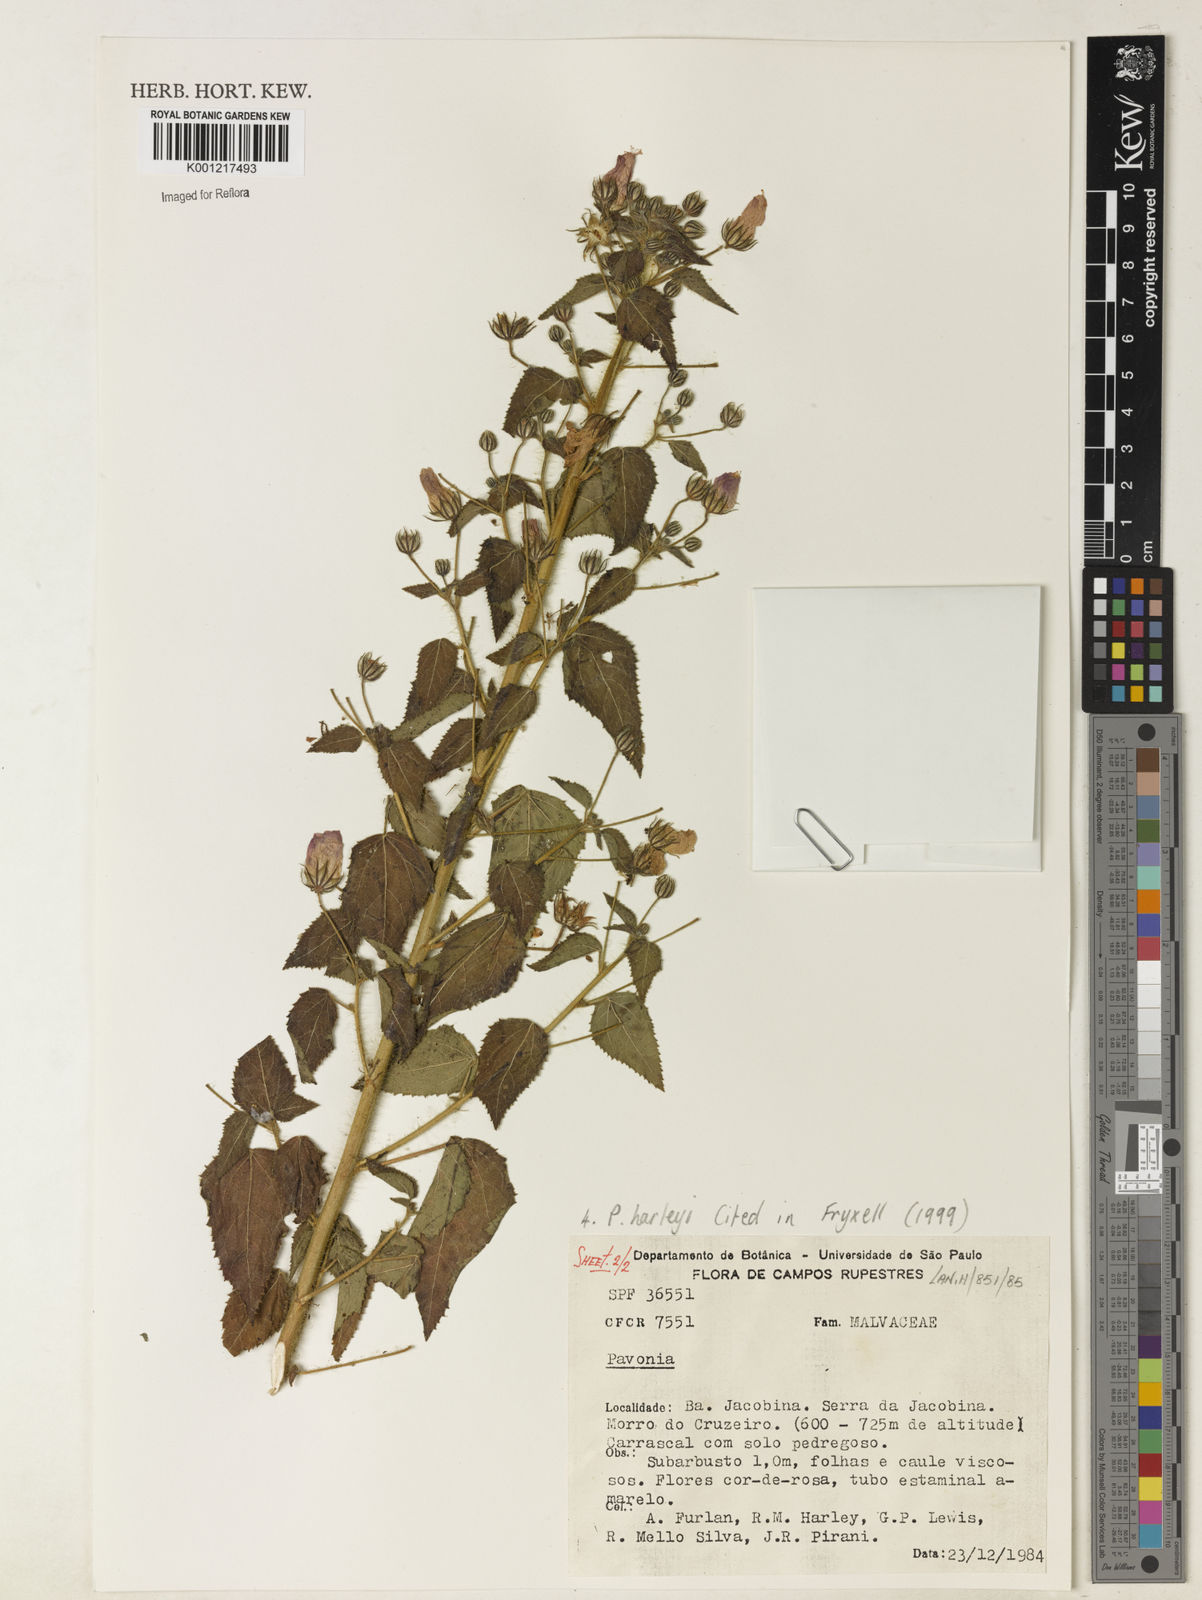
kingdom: Plantae
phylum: Tracheophyta
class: Magnoliopsida
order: Malvales
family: Malvaceae
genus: Pavonia
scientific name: Pavonia harleyi
